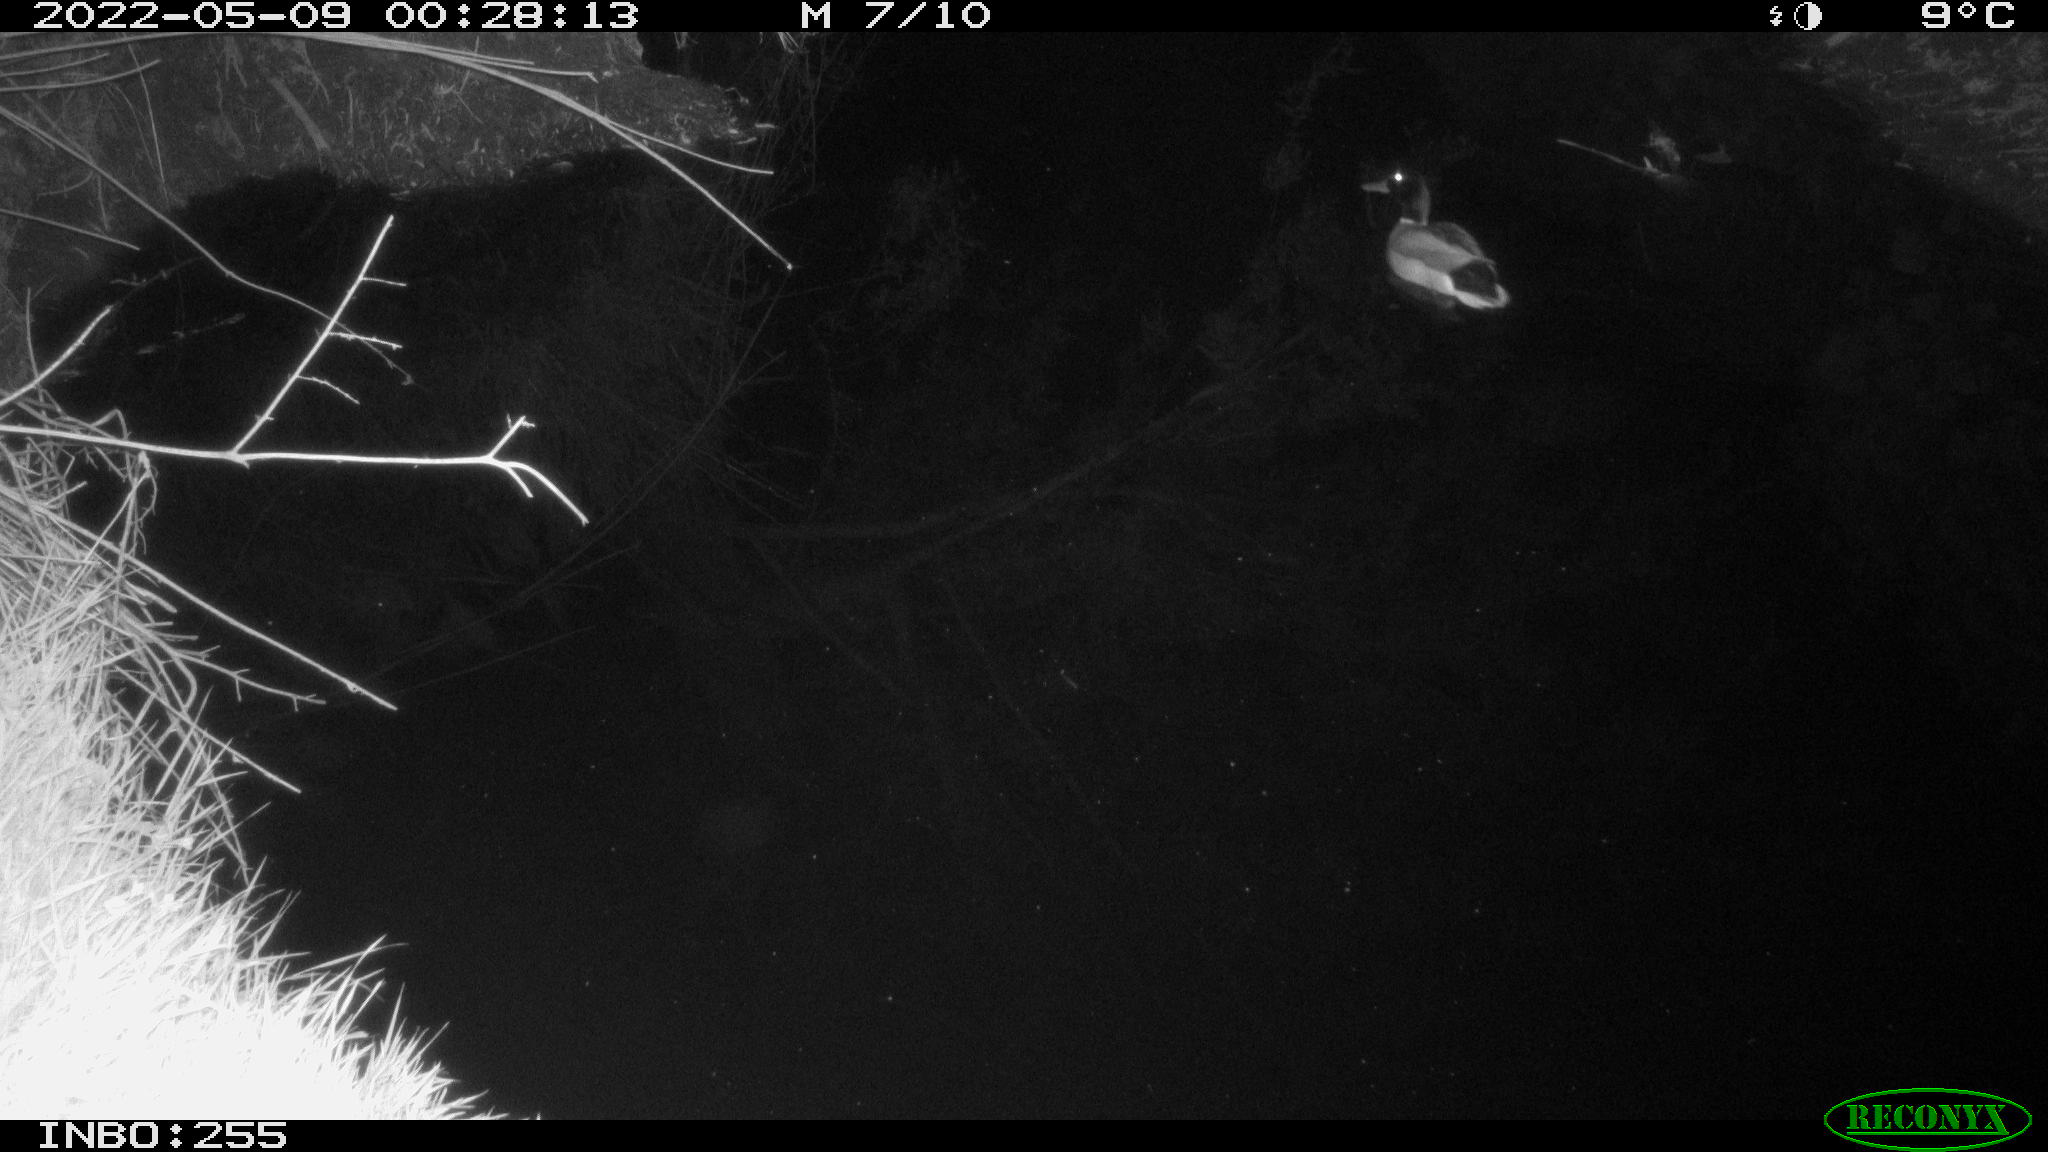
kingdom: Animalia
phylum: Chordata
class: Aves
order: Anseriformes
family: Anatidae
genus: Anas
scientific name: Anas platyrhynchos
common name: Mallard
